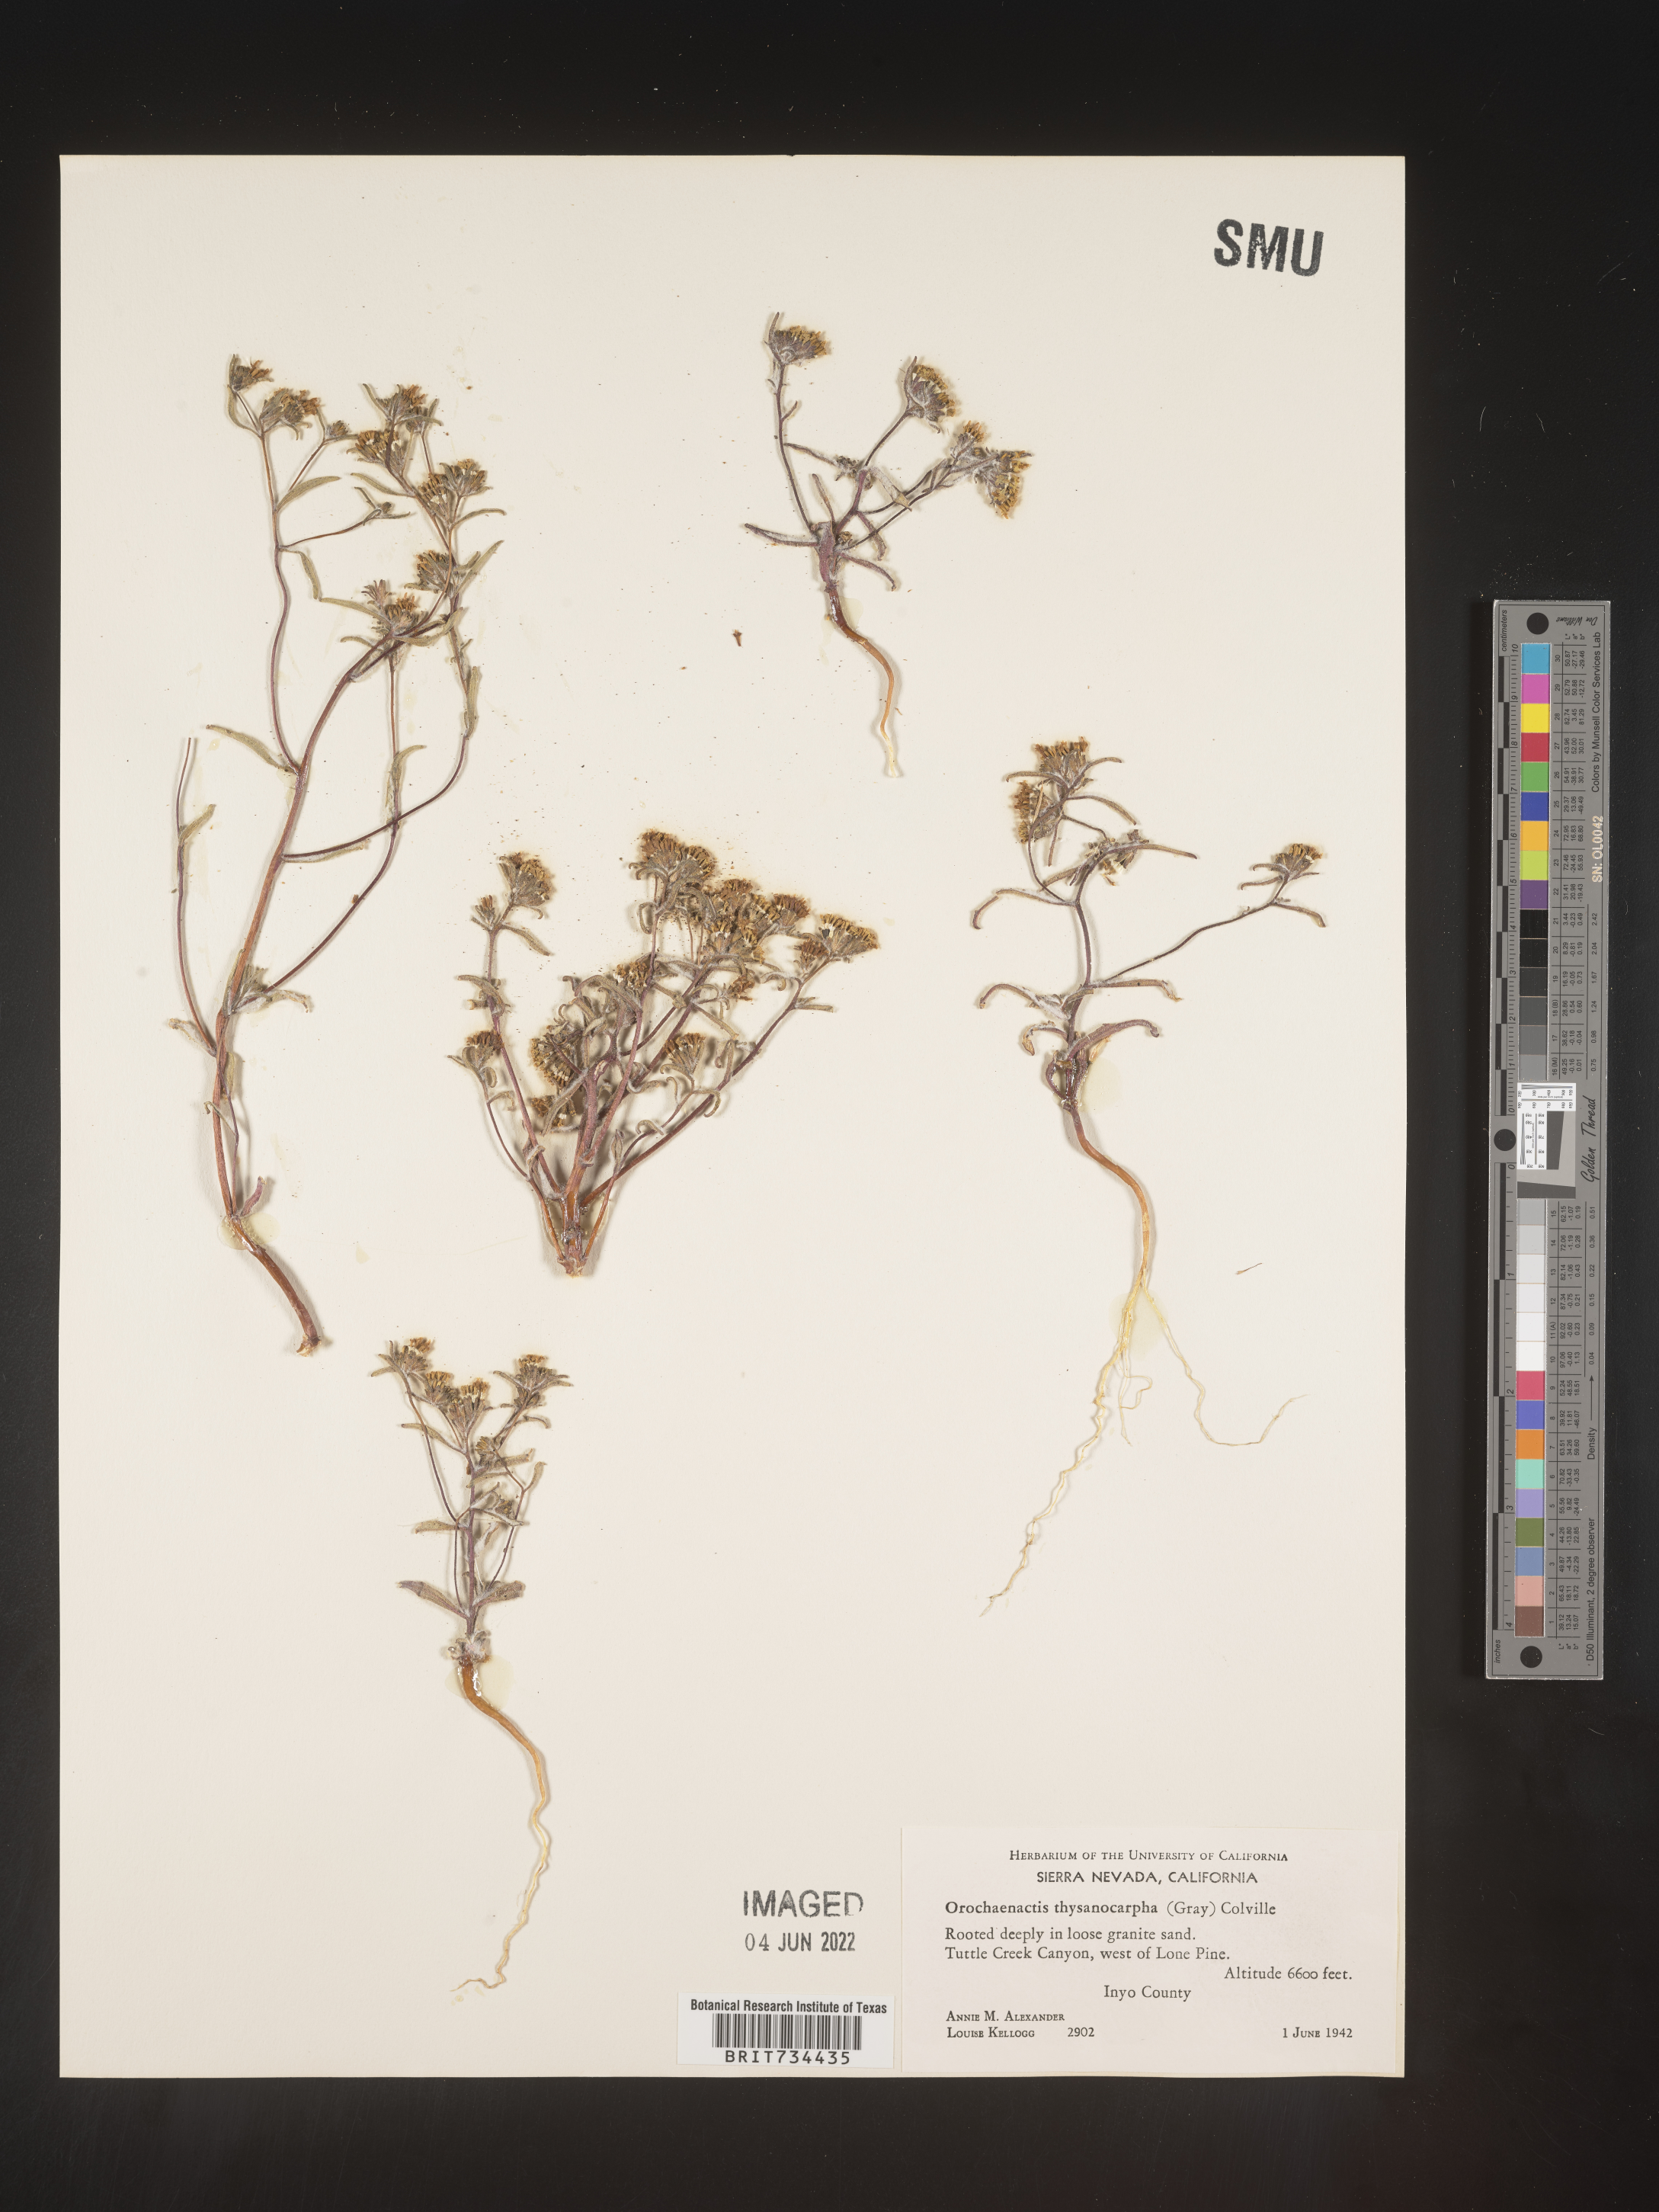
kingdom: Plantae
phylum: Tracheophyta
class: Magnoliopsida
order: Asterales
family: Asteraceae
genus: Orochaenactis
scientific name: Orochaenactis thysanocarpha
